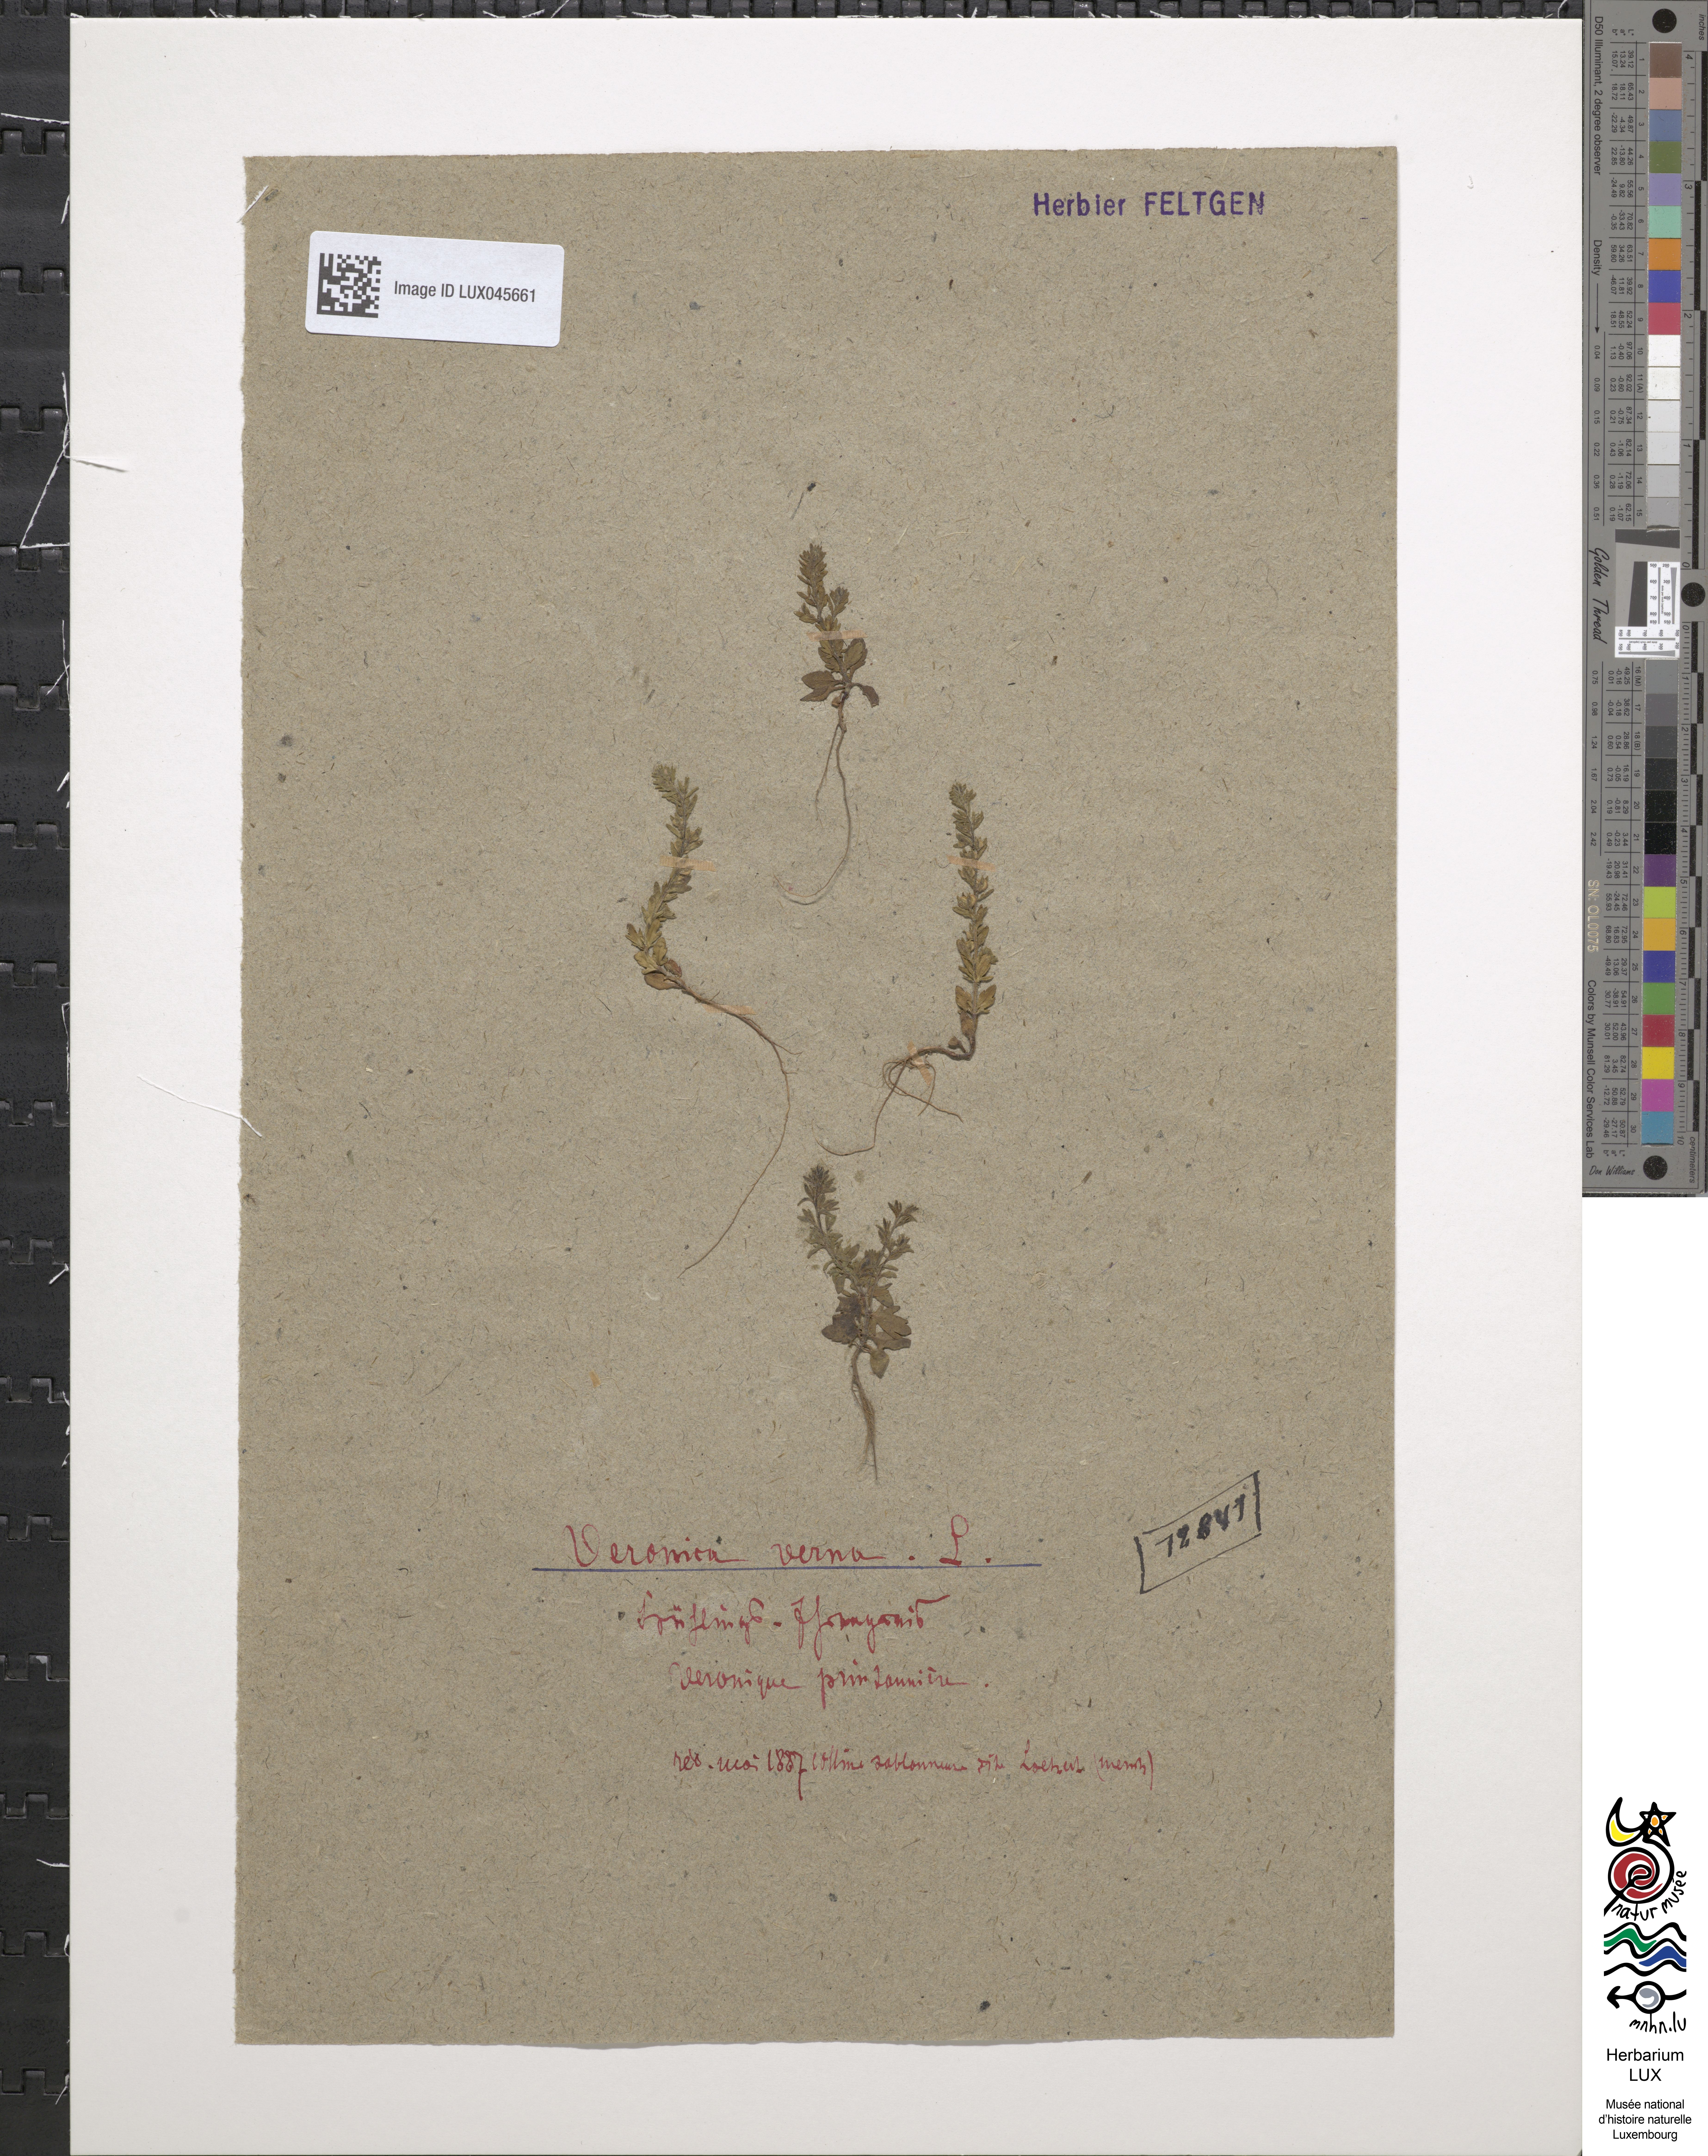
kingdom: Plantae
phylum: Tracheophyta
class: Magnoliopsida
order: Lamiales
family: Plantaginaceae
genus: Veronica
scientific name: Veronica verna
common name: Spring speedwell
